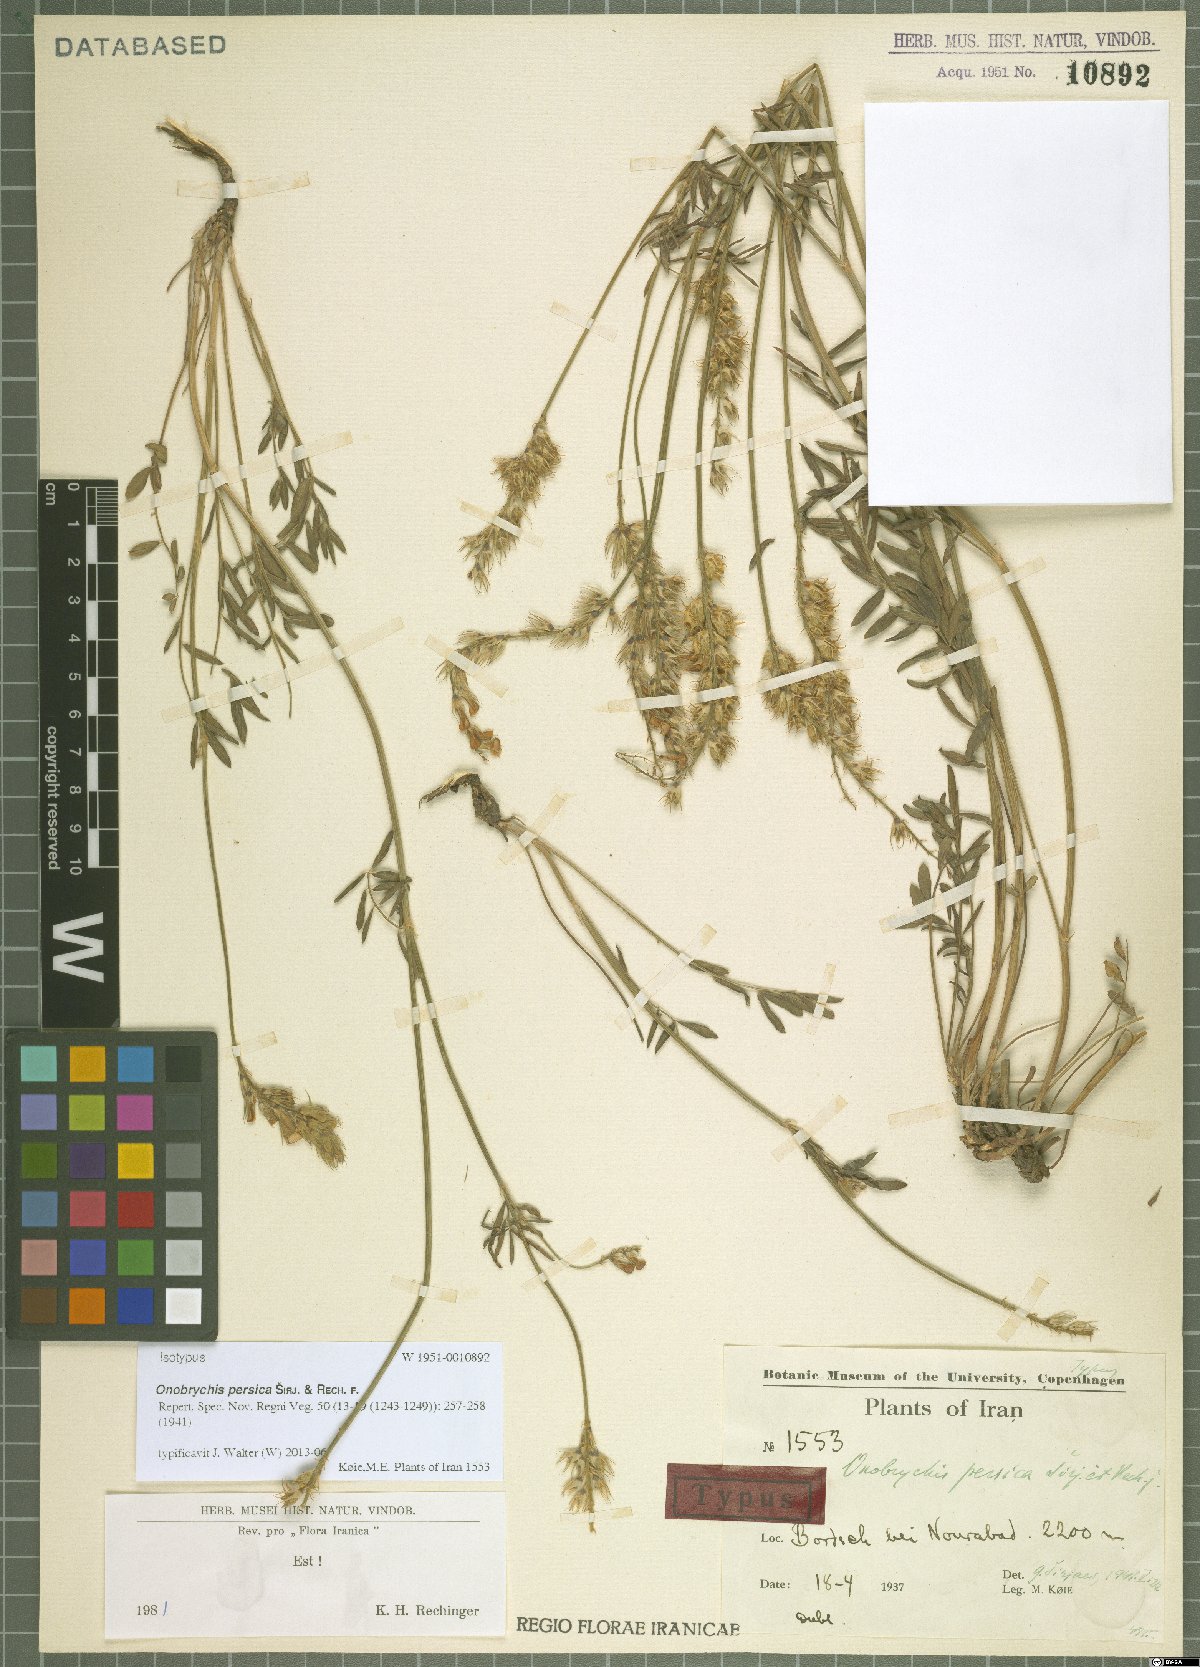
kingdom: Plantae
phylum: Tracheophyta
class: Magnoliopsida
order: Fabales
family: Fabaceae
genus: Onobrychis
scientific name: Onobrychis persica
